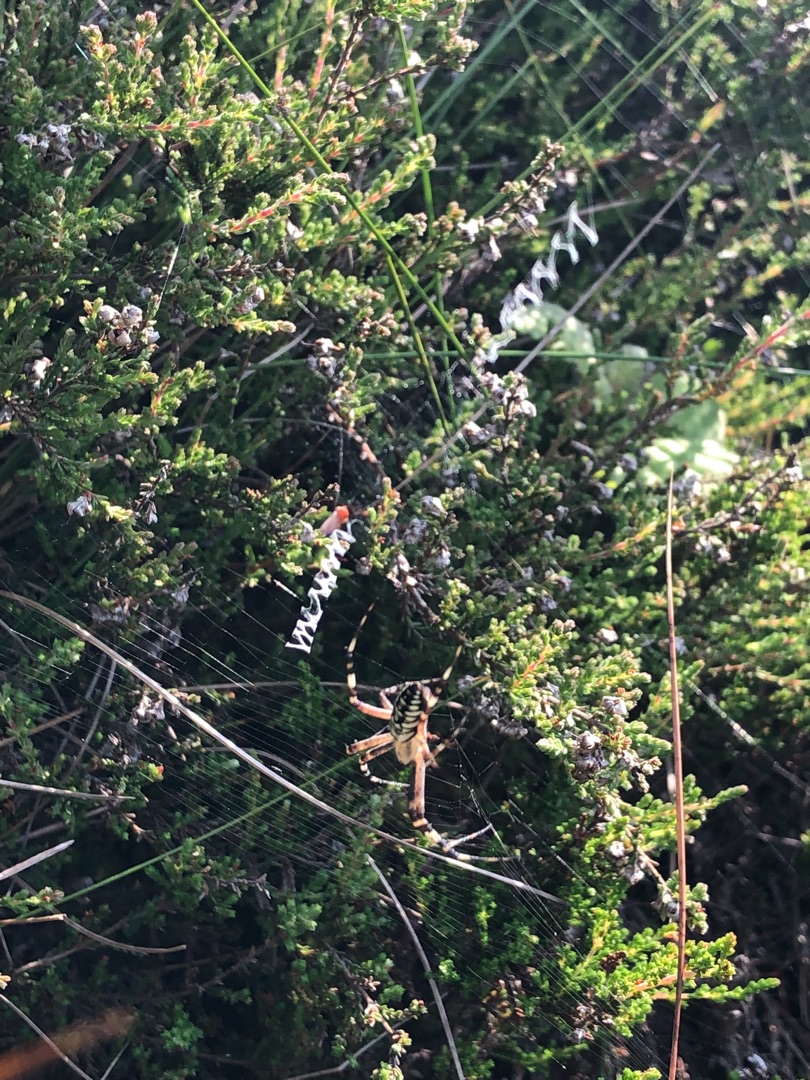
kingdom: Animalia
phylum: Arthropoda
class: Arachnida
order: Araneae
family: Araneidae
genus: Argiope
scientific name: Argiope bruennichi
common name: Hvepseedderkop
